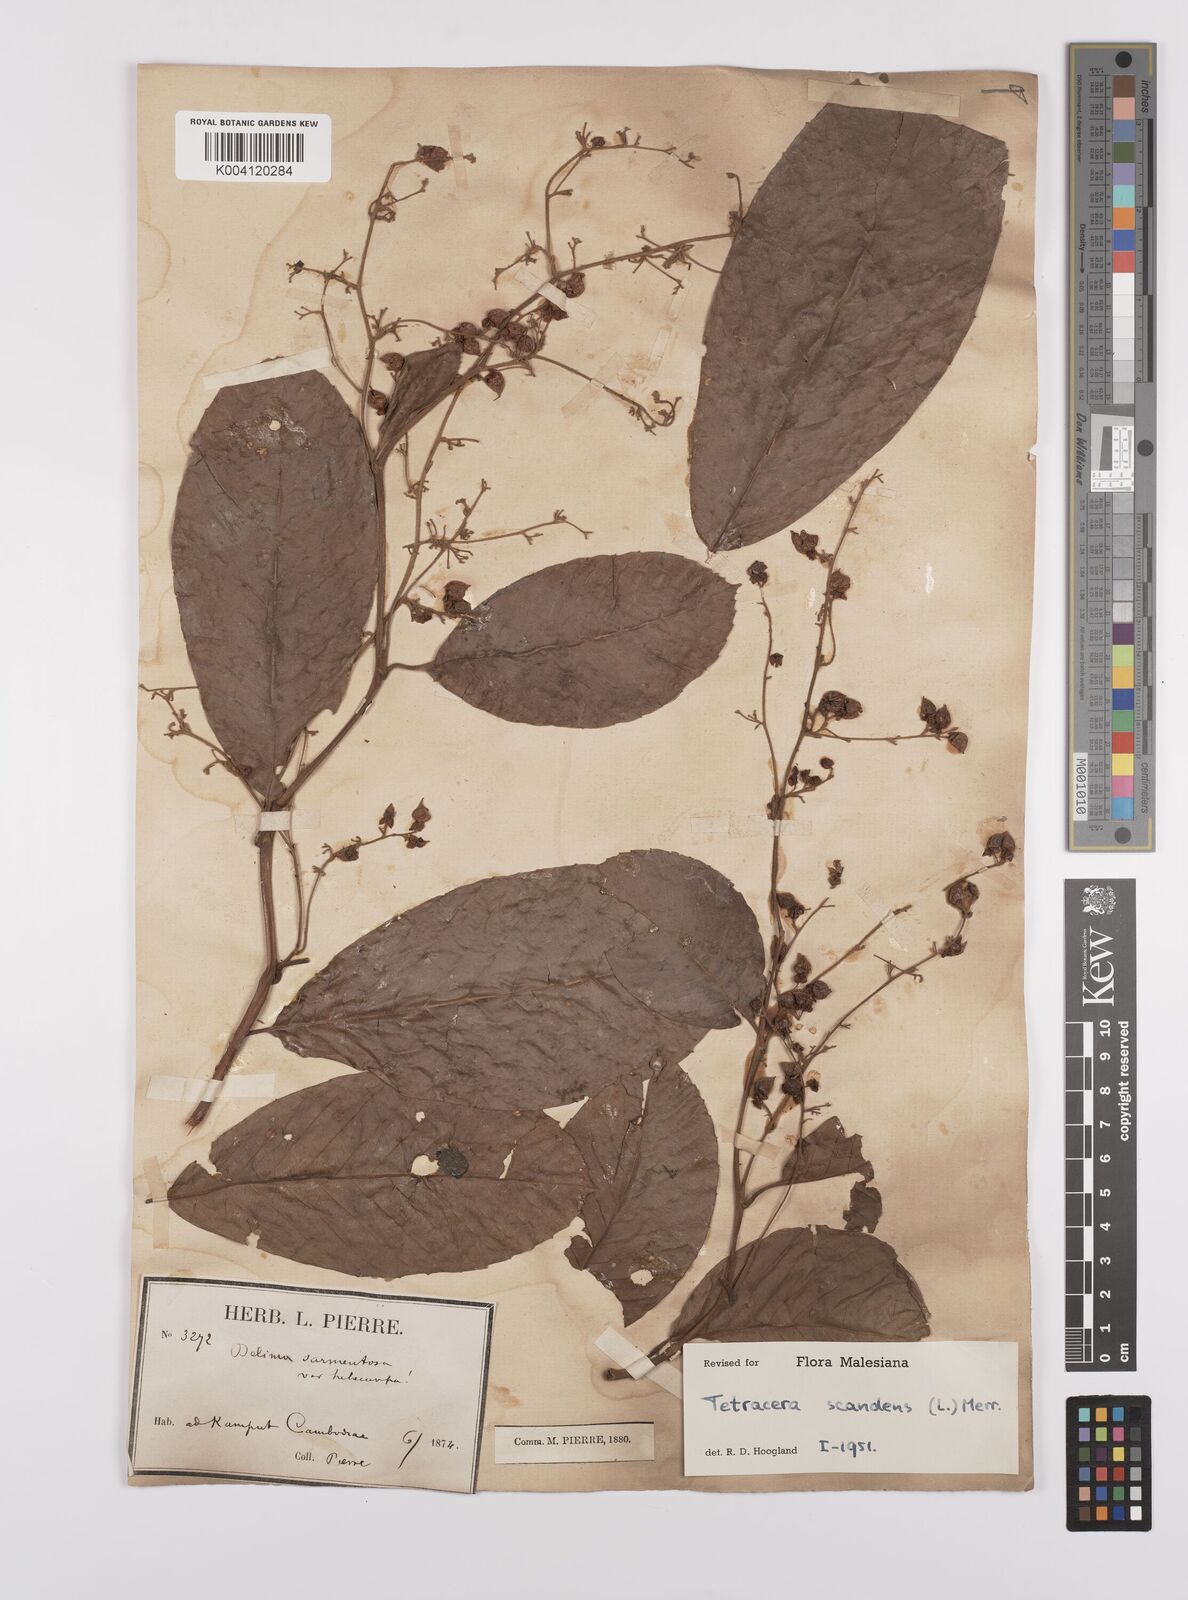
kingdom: Plantae
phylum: Tracheophyta
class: Magnoliopsida
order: Dilleniales
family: Dilleniaceae
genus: Tetracera
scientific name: Tetracera
